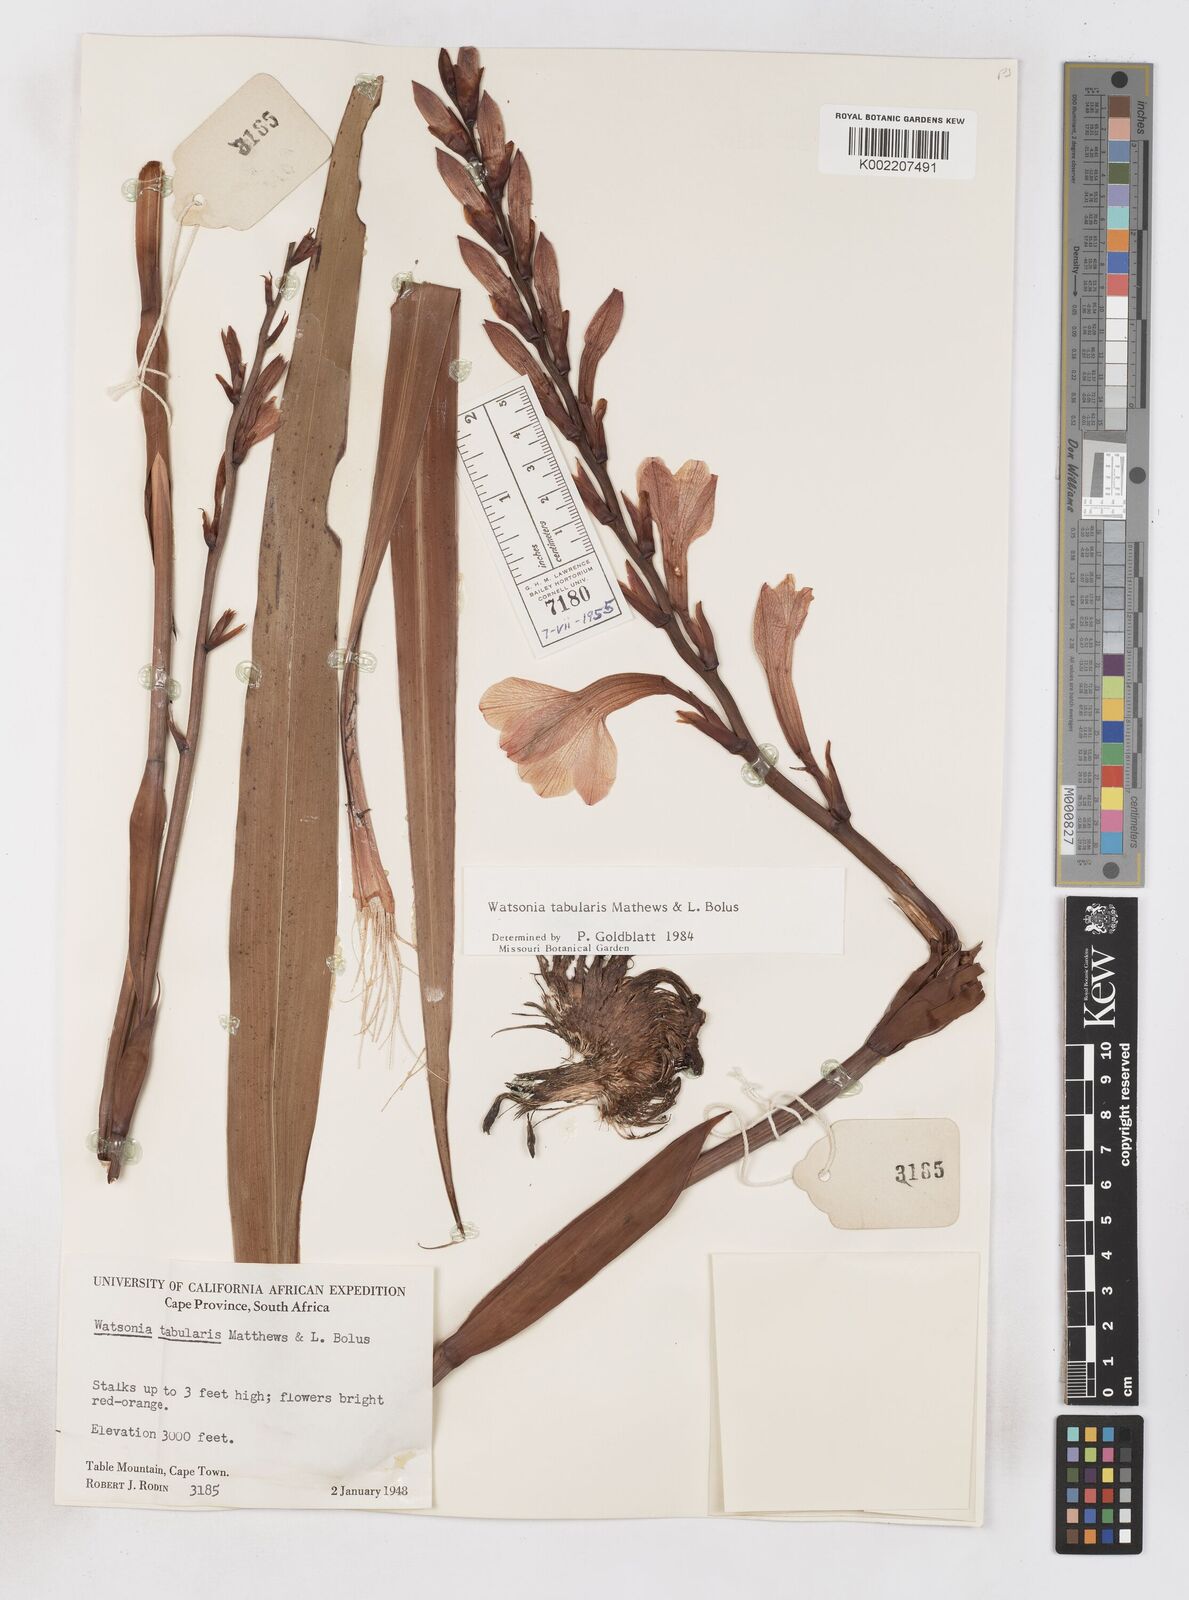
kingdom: Plantae
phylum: Tracheophyta
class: Liliopsida
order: Asparagales
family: Iridaceae
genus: Watsonia
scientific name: Watsonia tabularis
